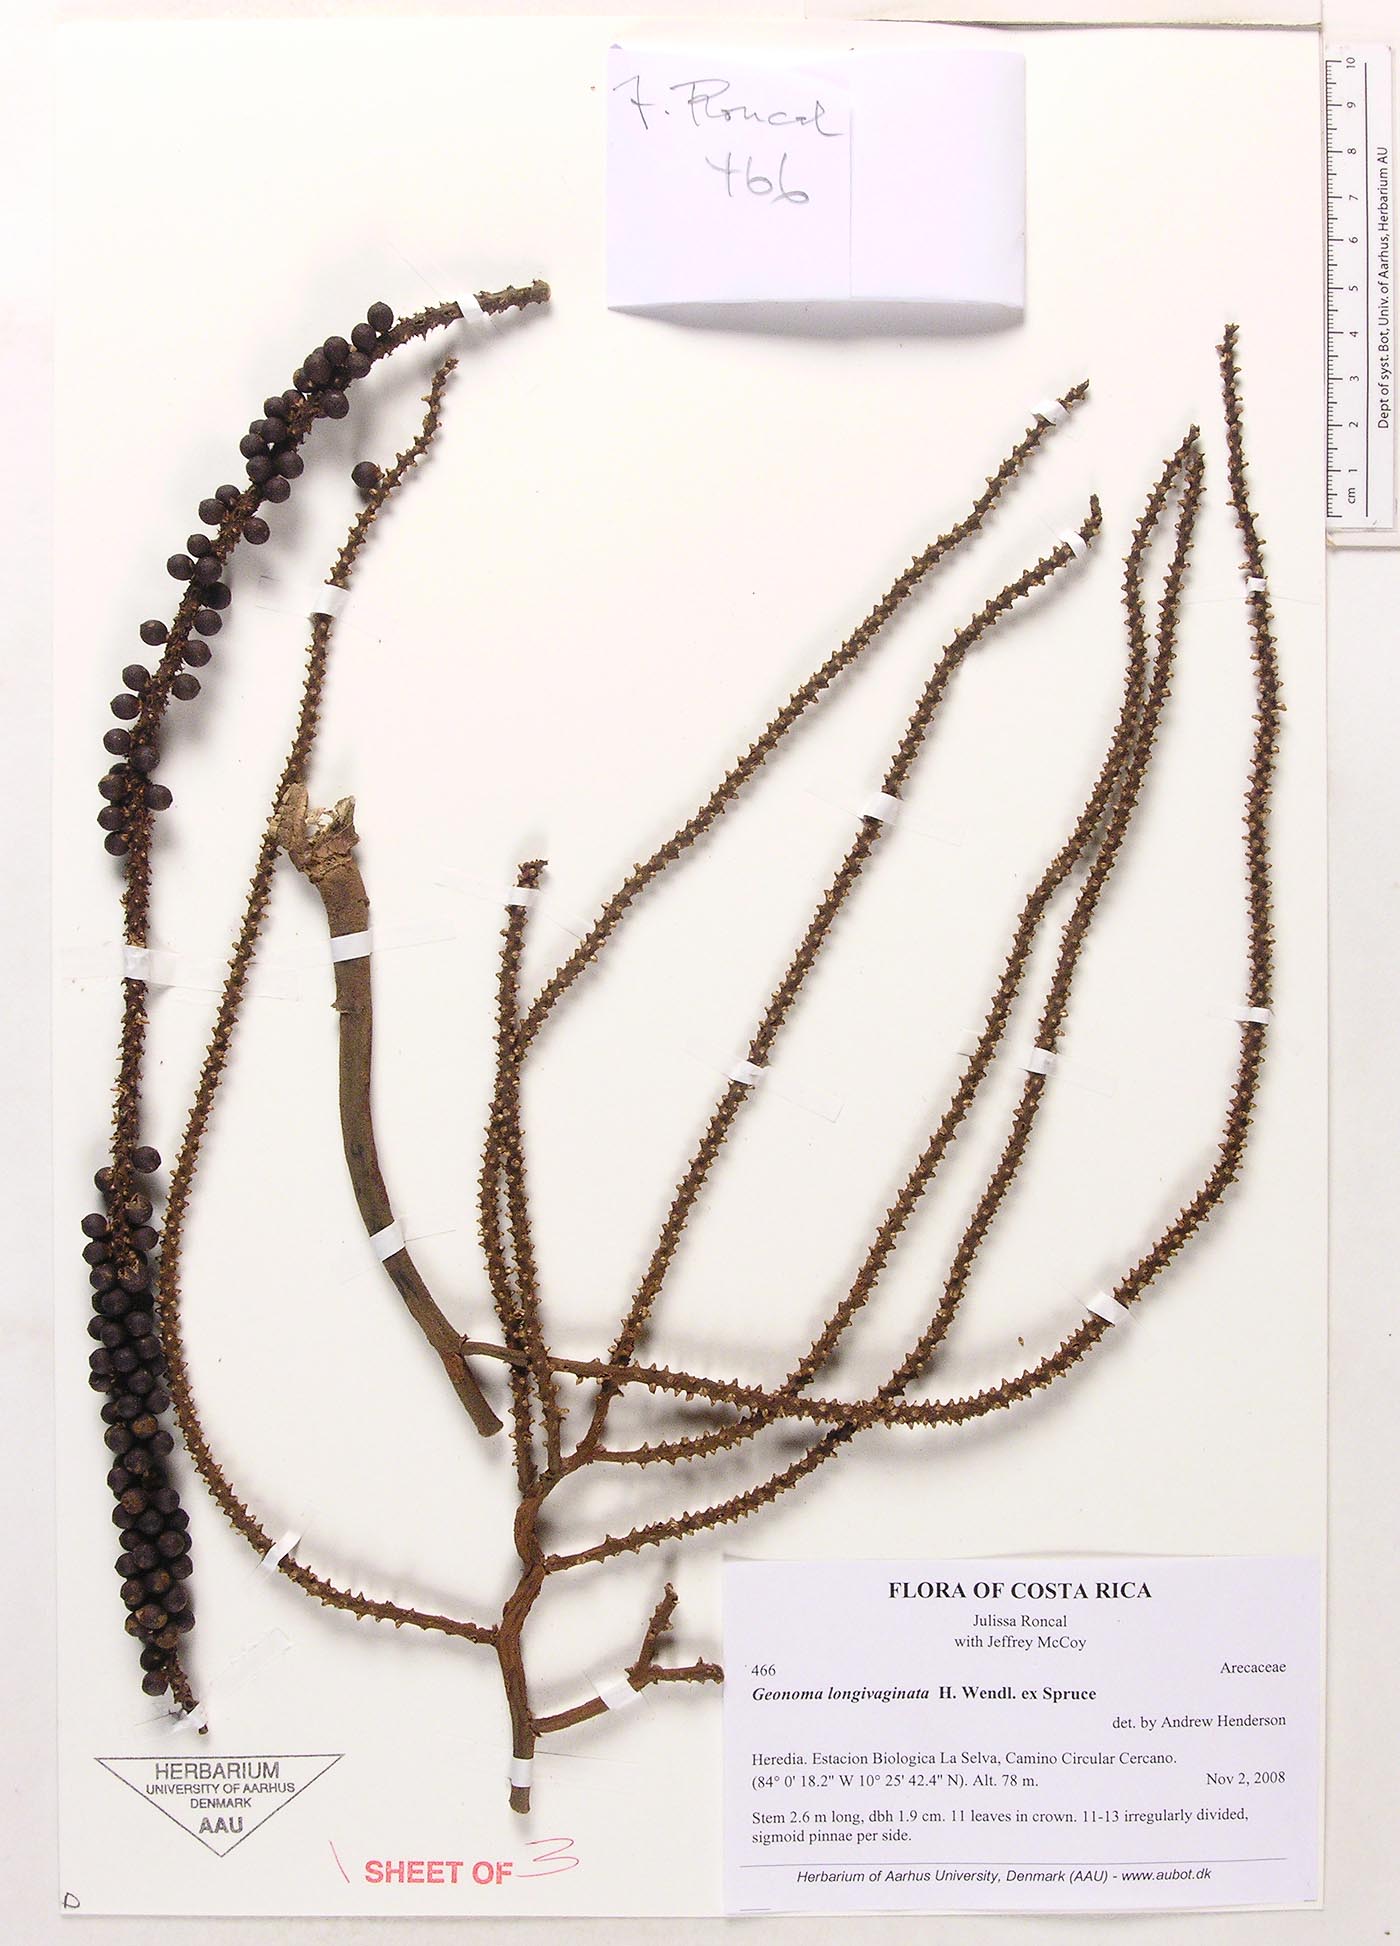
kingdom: Plantae
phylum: Tracheophyta
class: Liliopsida
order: Arecales
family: Arecaceae
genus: Geonoma
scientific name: Geonoma longivaginata
